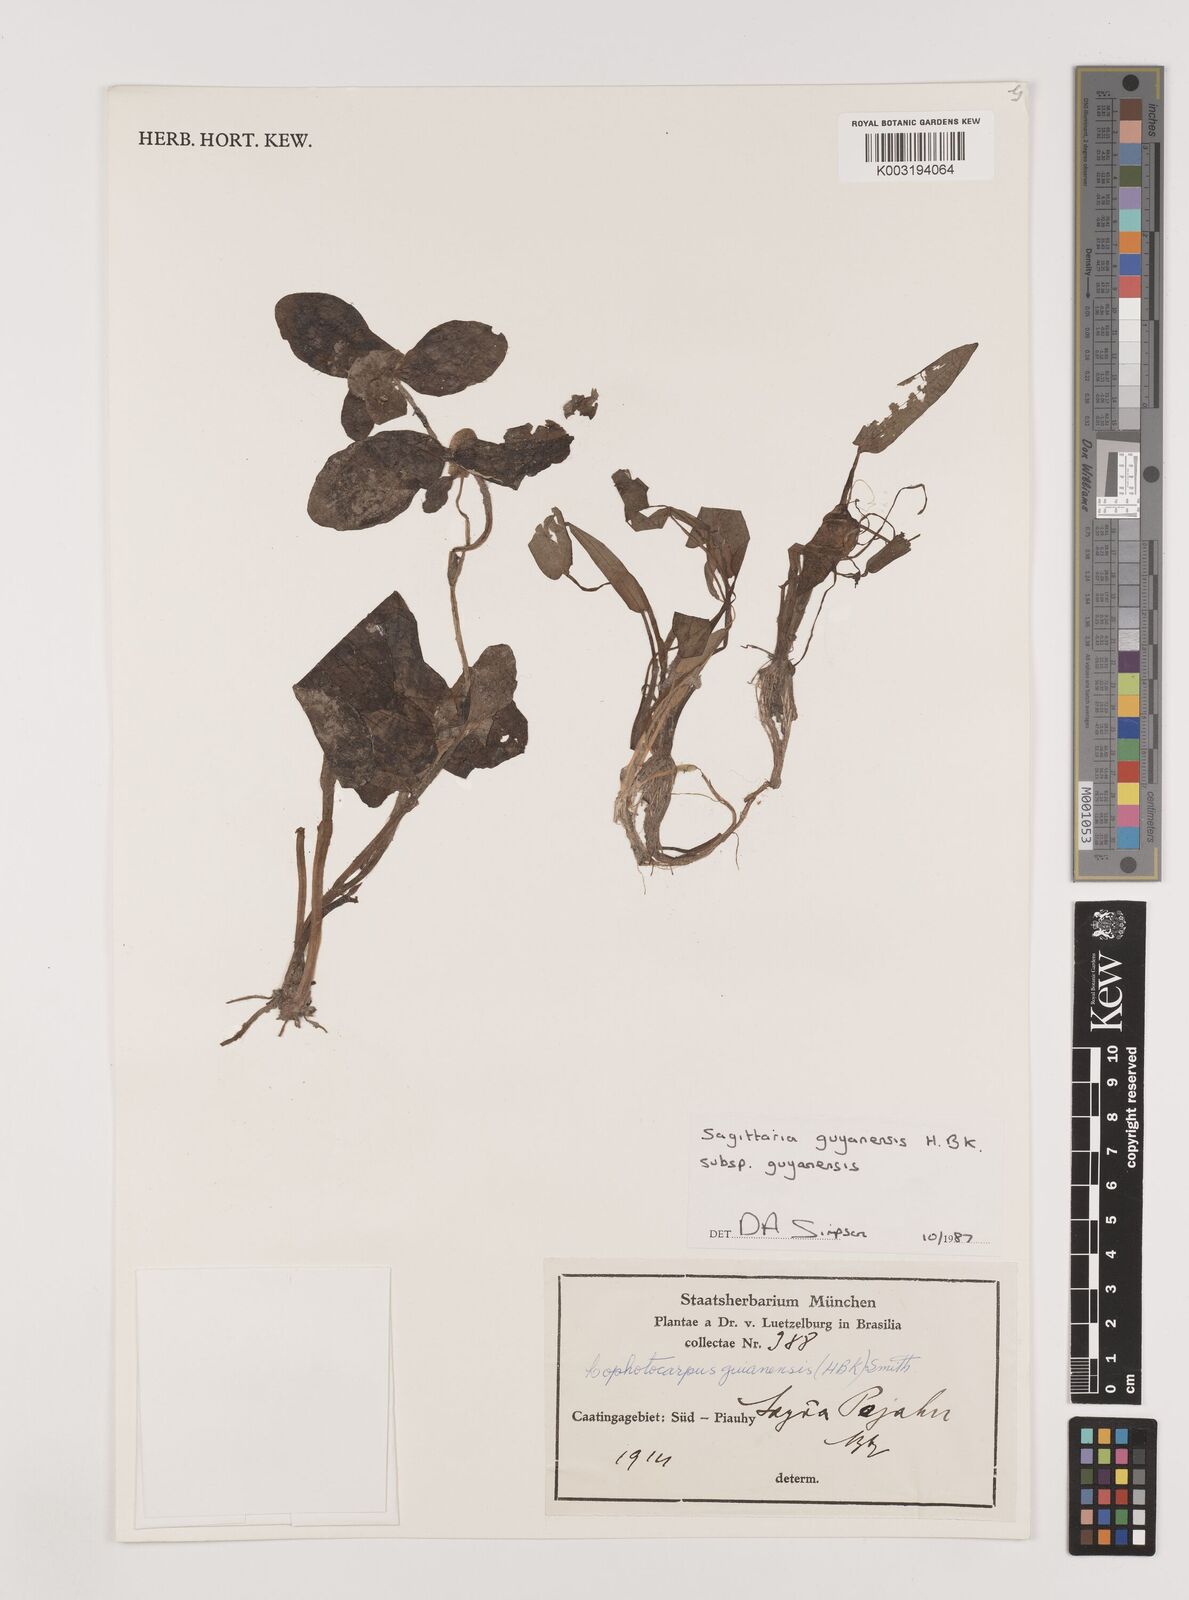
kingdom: Plantae
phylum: Tracheophyta
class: Liliopsida
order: Alismatales
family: Alismataceae
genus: Sagittaria
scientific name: Sagittaria guayanensis
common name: Guyanese arrowhead
